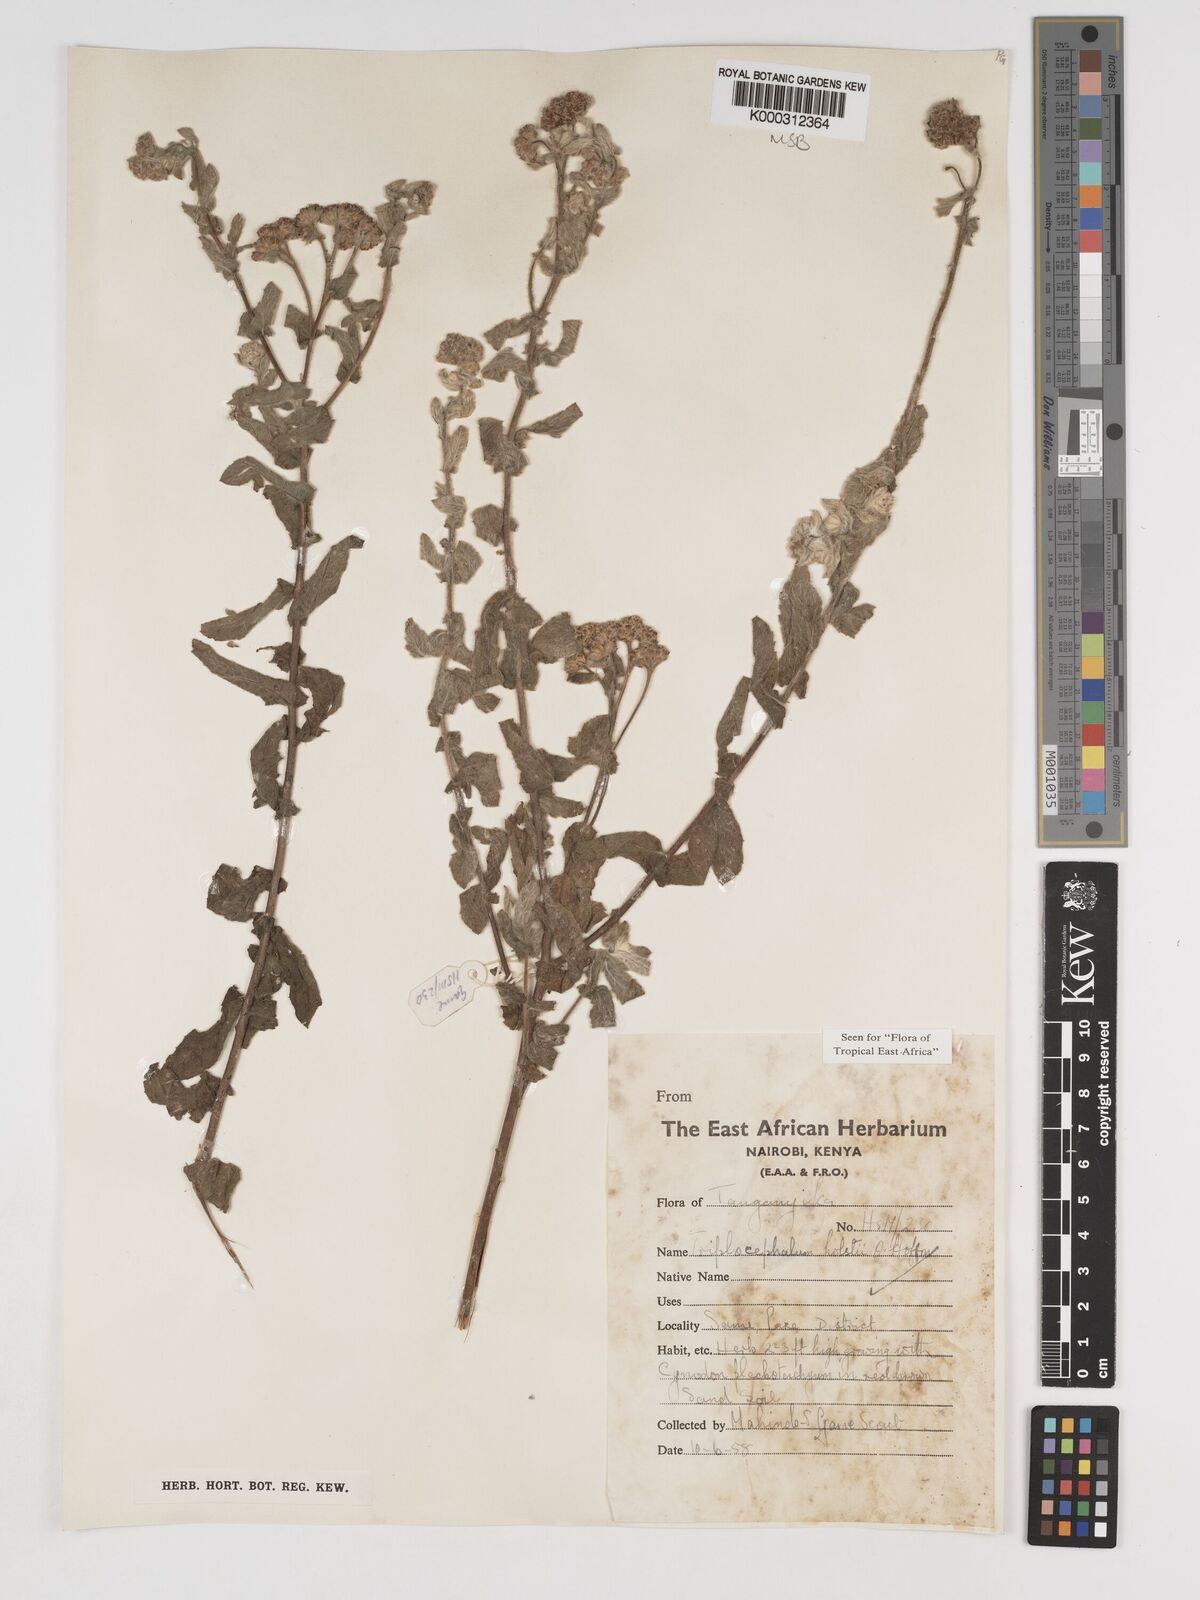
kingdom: Plantae
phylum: Tracheophyta
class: Magnoliopsida
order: Asterales
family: Asteraceae
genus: Triplocephalum
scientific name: Triplocephalum holstii
